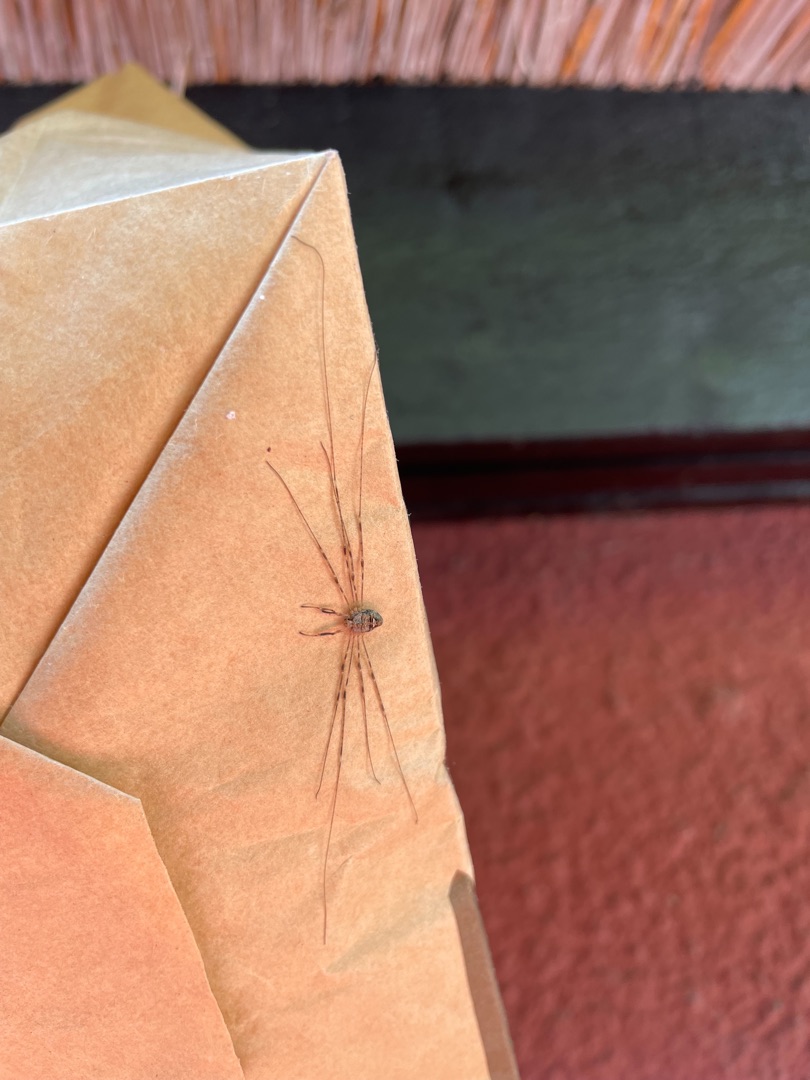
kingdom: Animalia
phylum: Arthropoda
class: Arachnida
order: Opiliones
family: Phalangiidae
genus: Dicranopalpus
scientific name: Dicranopalpus ramosus
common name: Gaffelmejer
